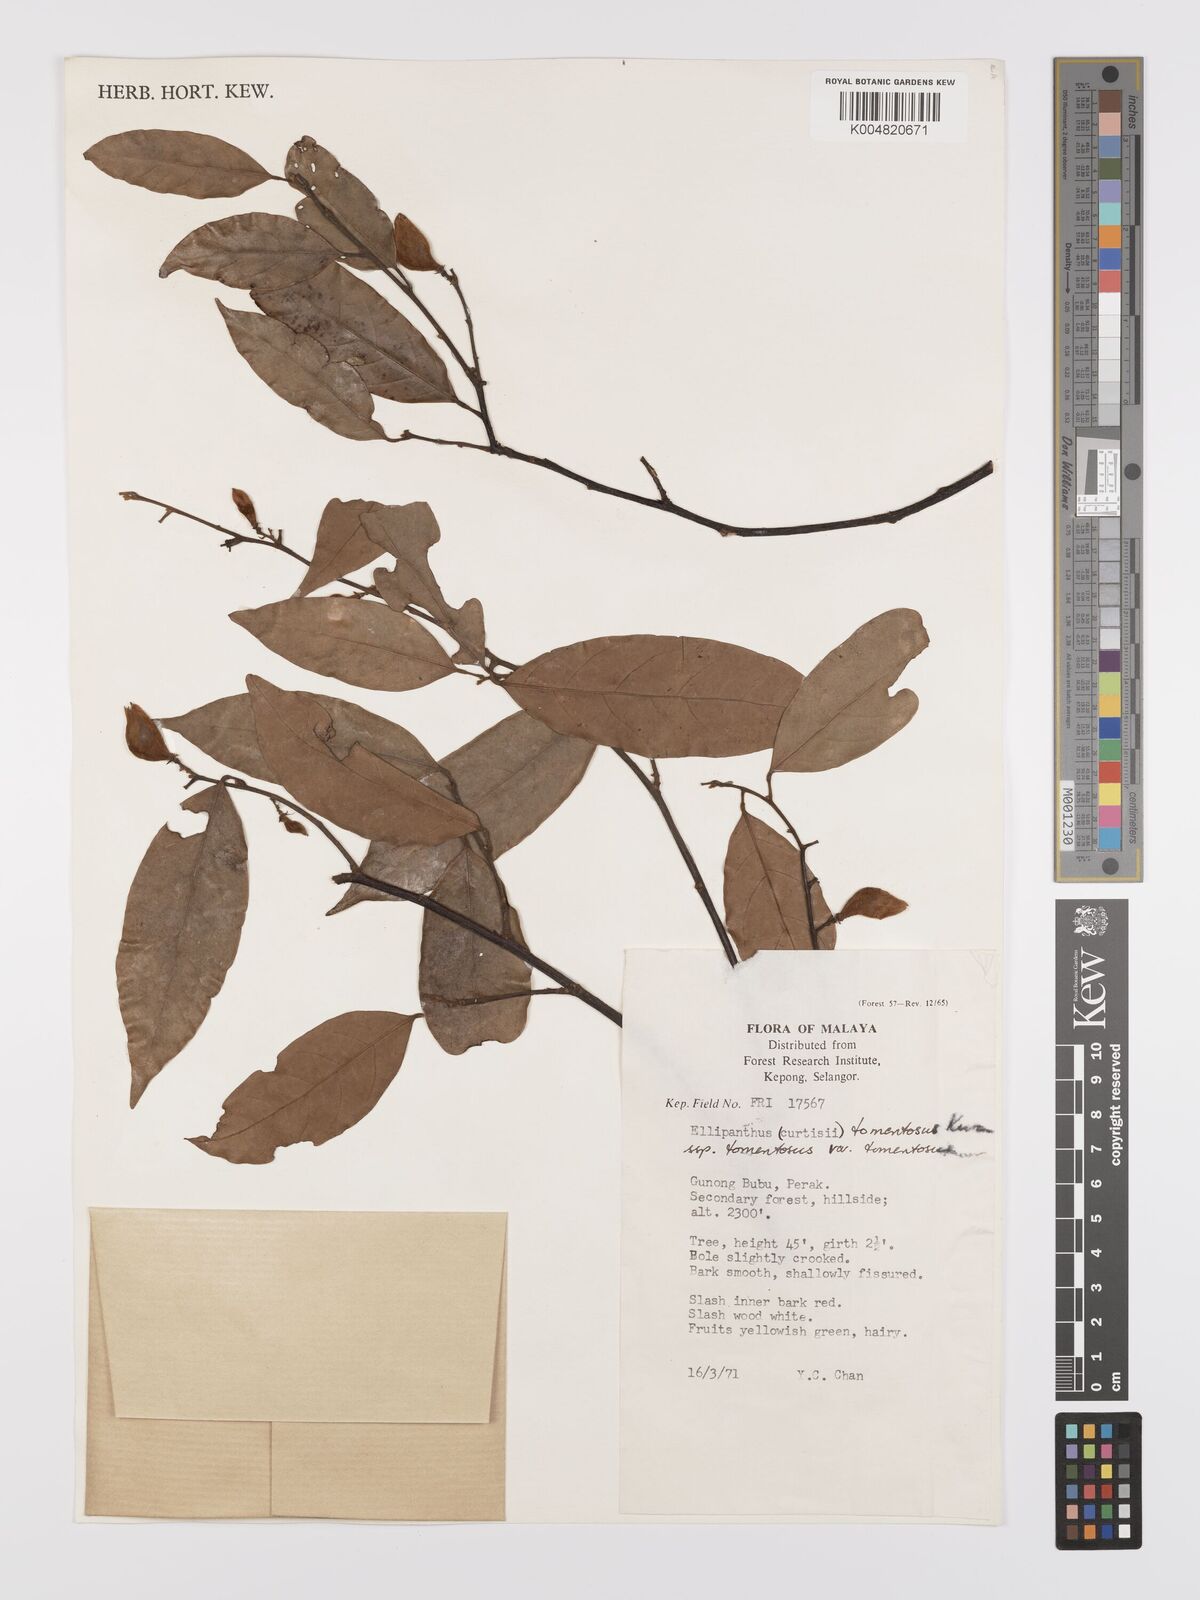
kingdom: Plantae
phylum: Tracheophyta
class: Magnoliopsida
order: Oxalidales
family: Connaraceae
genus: Ellipanthus
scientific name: Ellipanthus tomentosus
